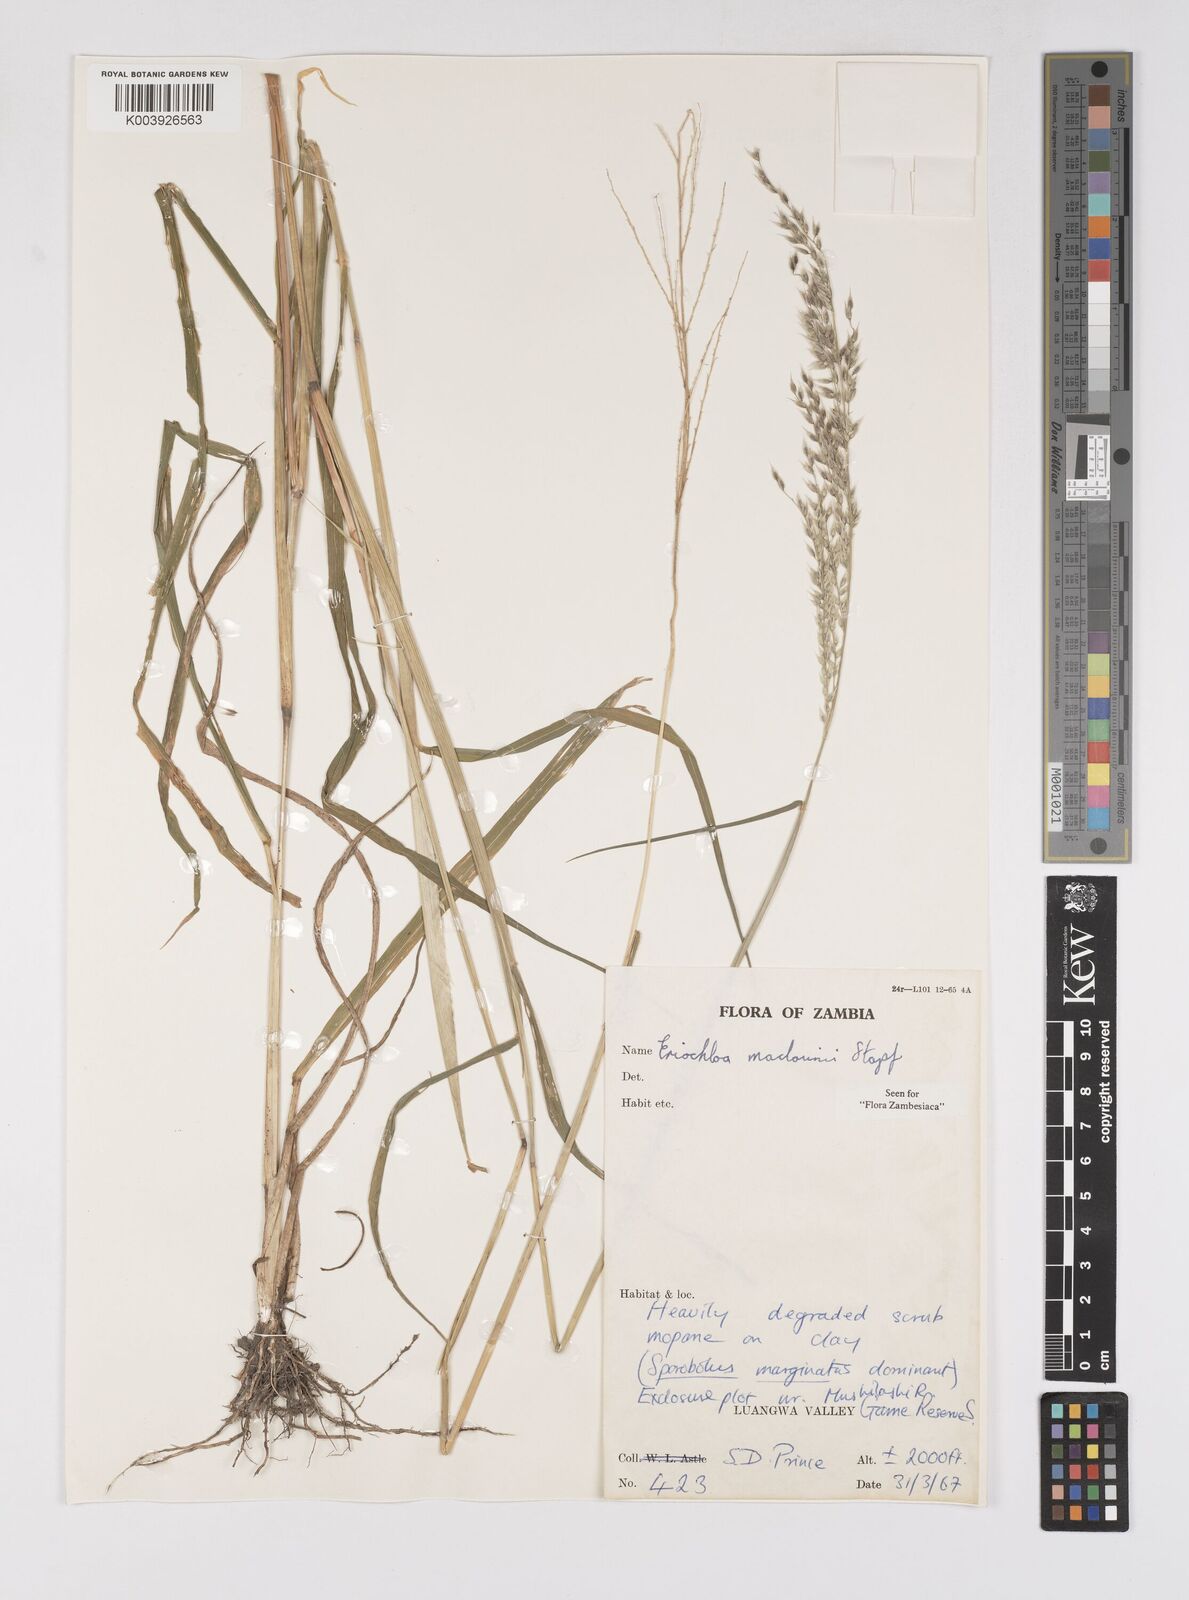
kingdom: Plantae
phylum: Tracheophyta
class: Liliopsida
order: Poales
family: Poaceae
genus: Eriochloa
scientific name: Eriochloa macclounii
